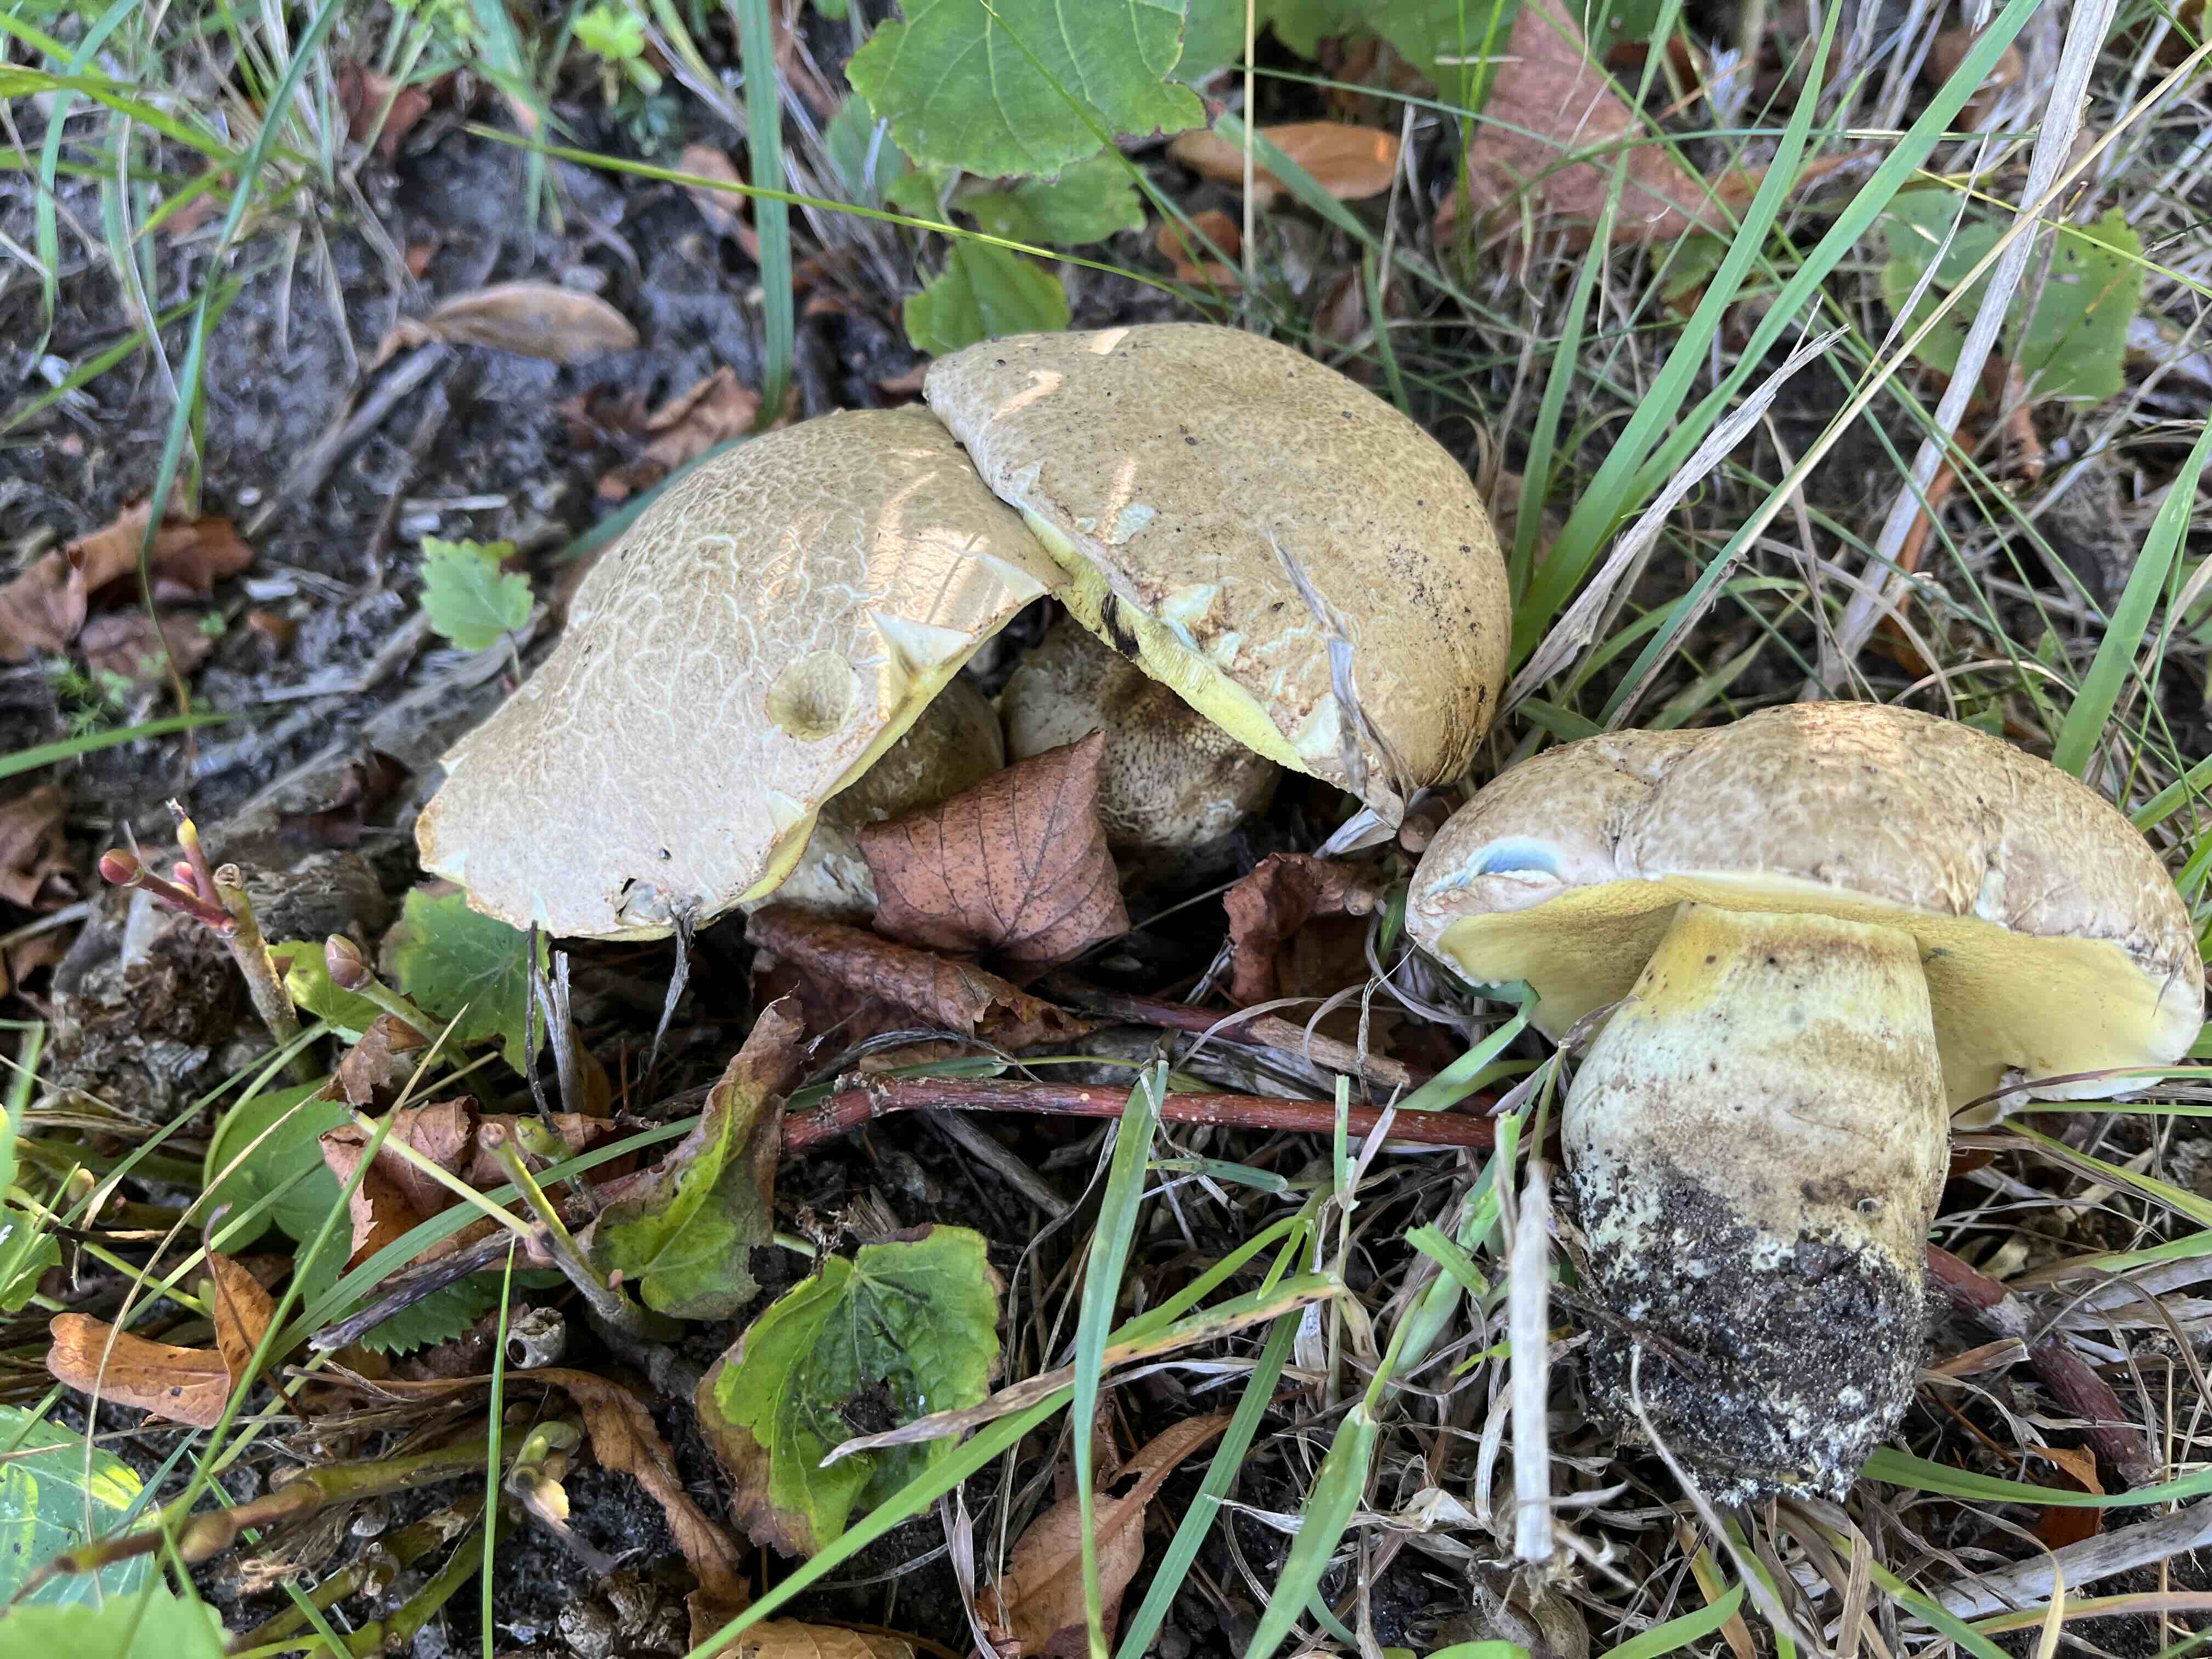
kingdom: Fungi
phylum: Basidiomycota
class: Agaricomycetes
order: Boletales
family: Boletaceae
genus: Caloboletus
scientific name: Caloboletus radicans
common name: rod-rørhat
